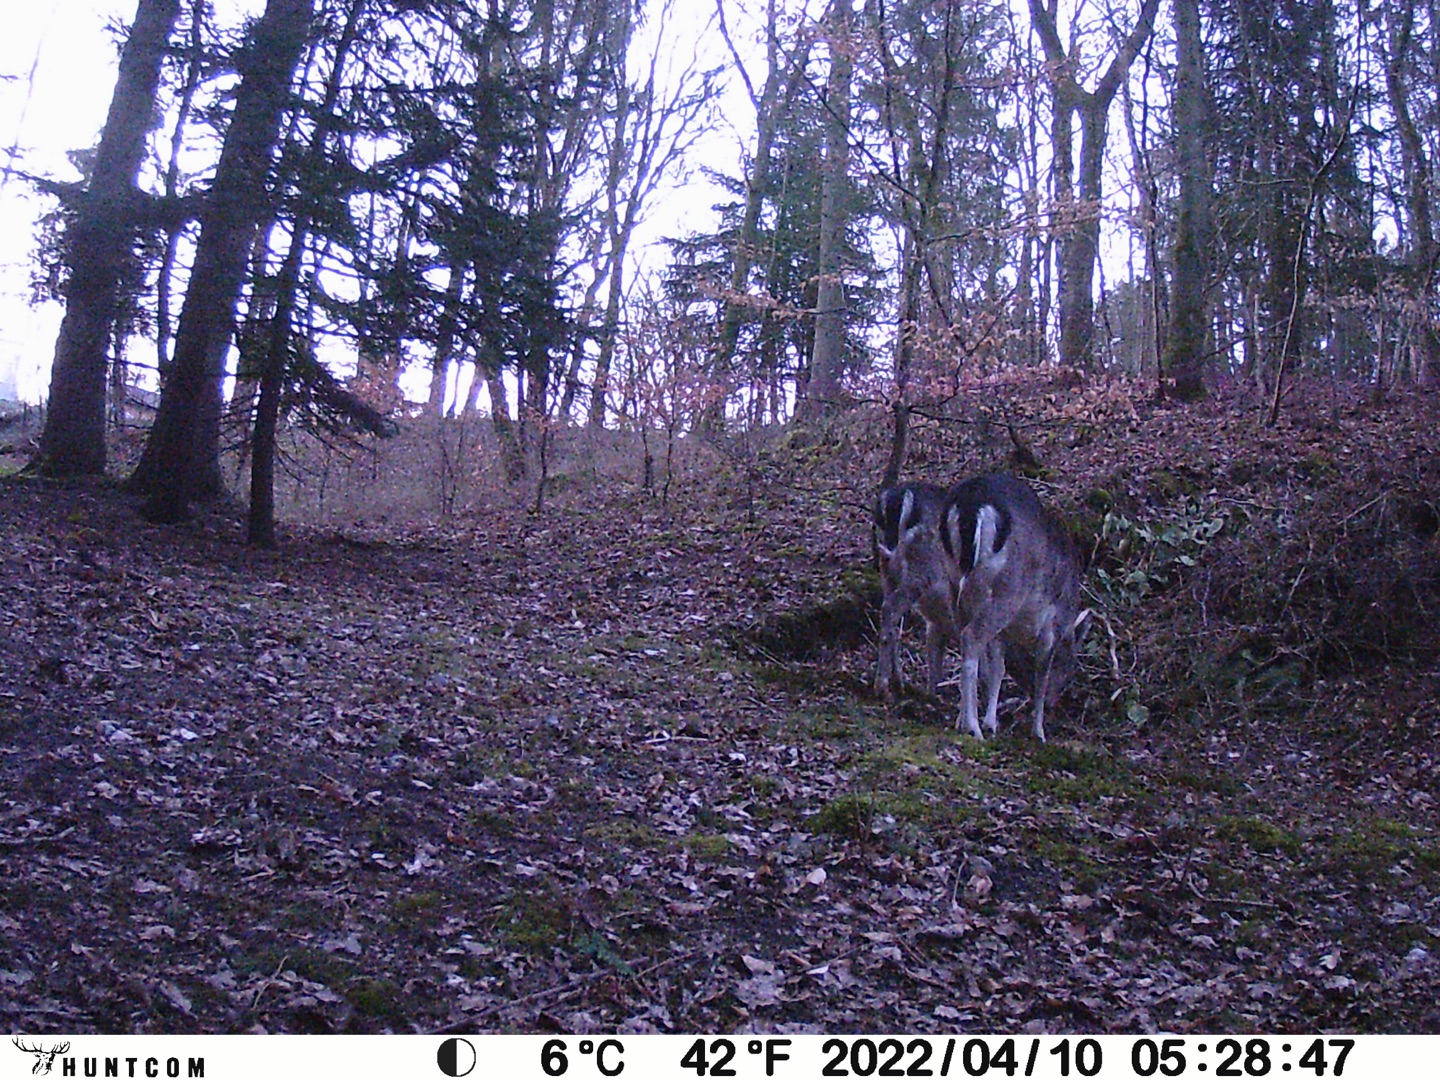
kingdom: Animalia
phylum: Chordata
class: Mammalia
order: Artiodactyla
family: Cervidae
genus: Dama
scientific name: Dama dama
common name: Dådyr
